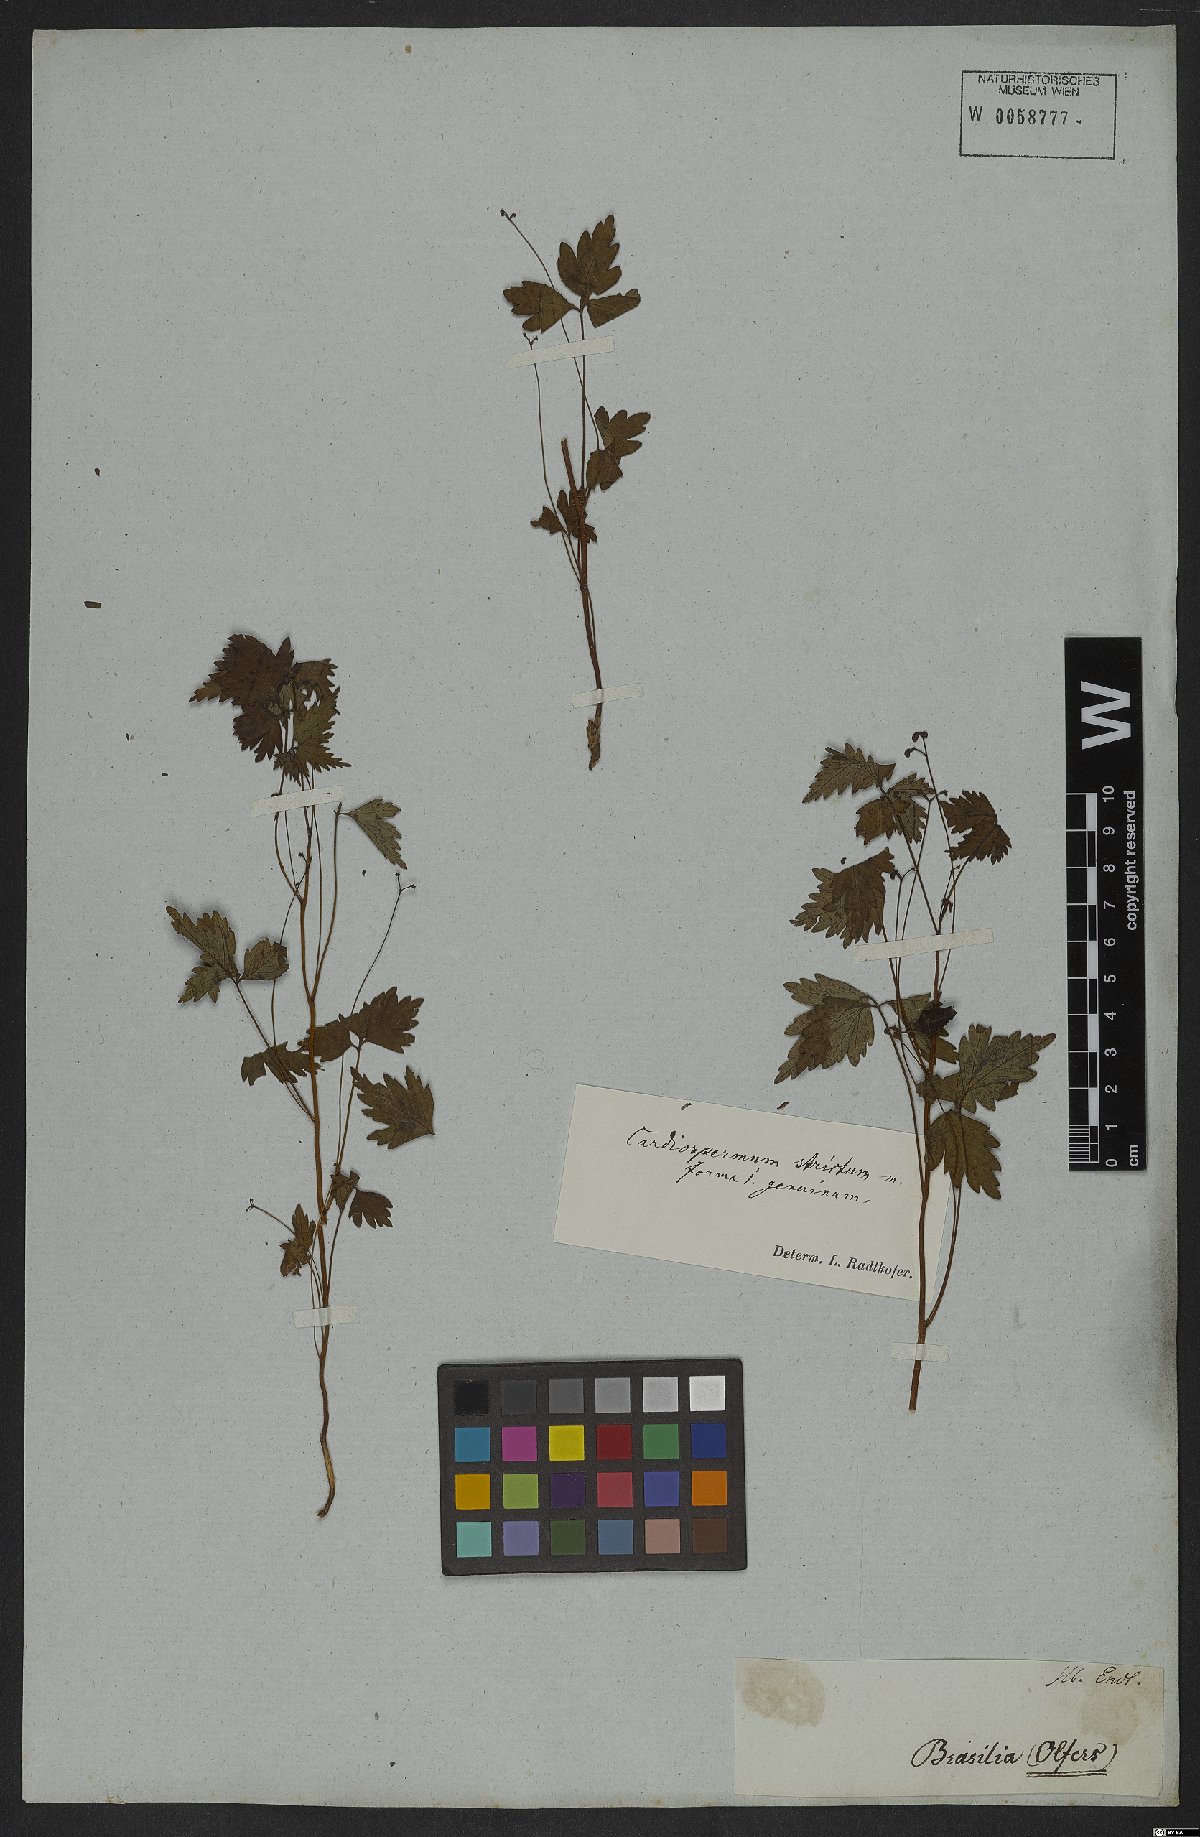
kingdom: Plantae
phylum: Tracheophyta
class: Magnoliopsida
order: Sapindales
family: Sapindaceae
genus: Cardiospermum
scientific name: Cardiospermum anomalum
